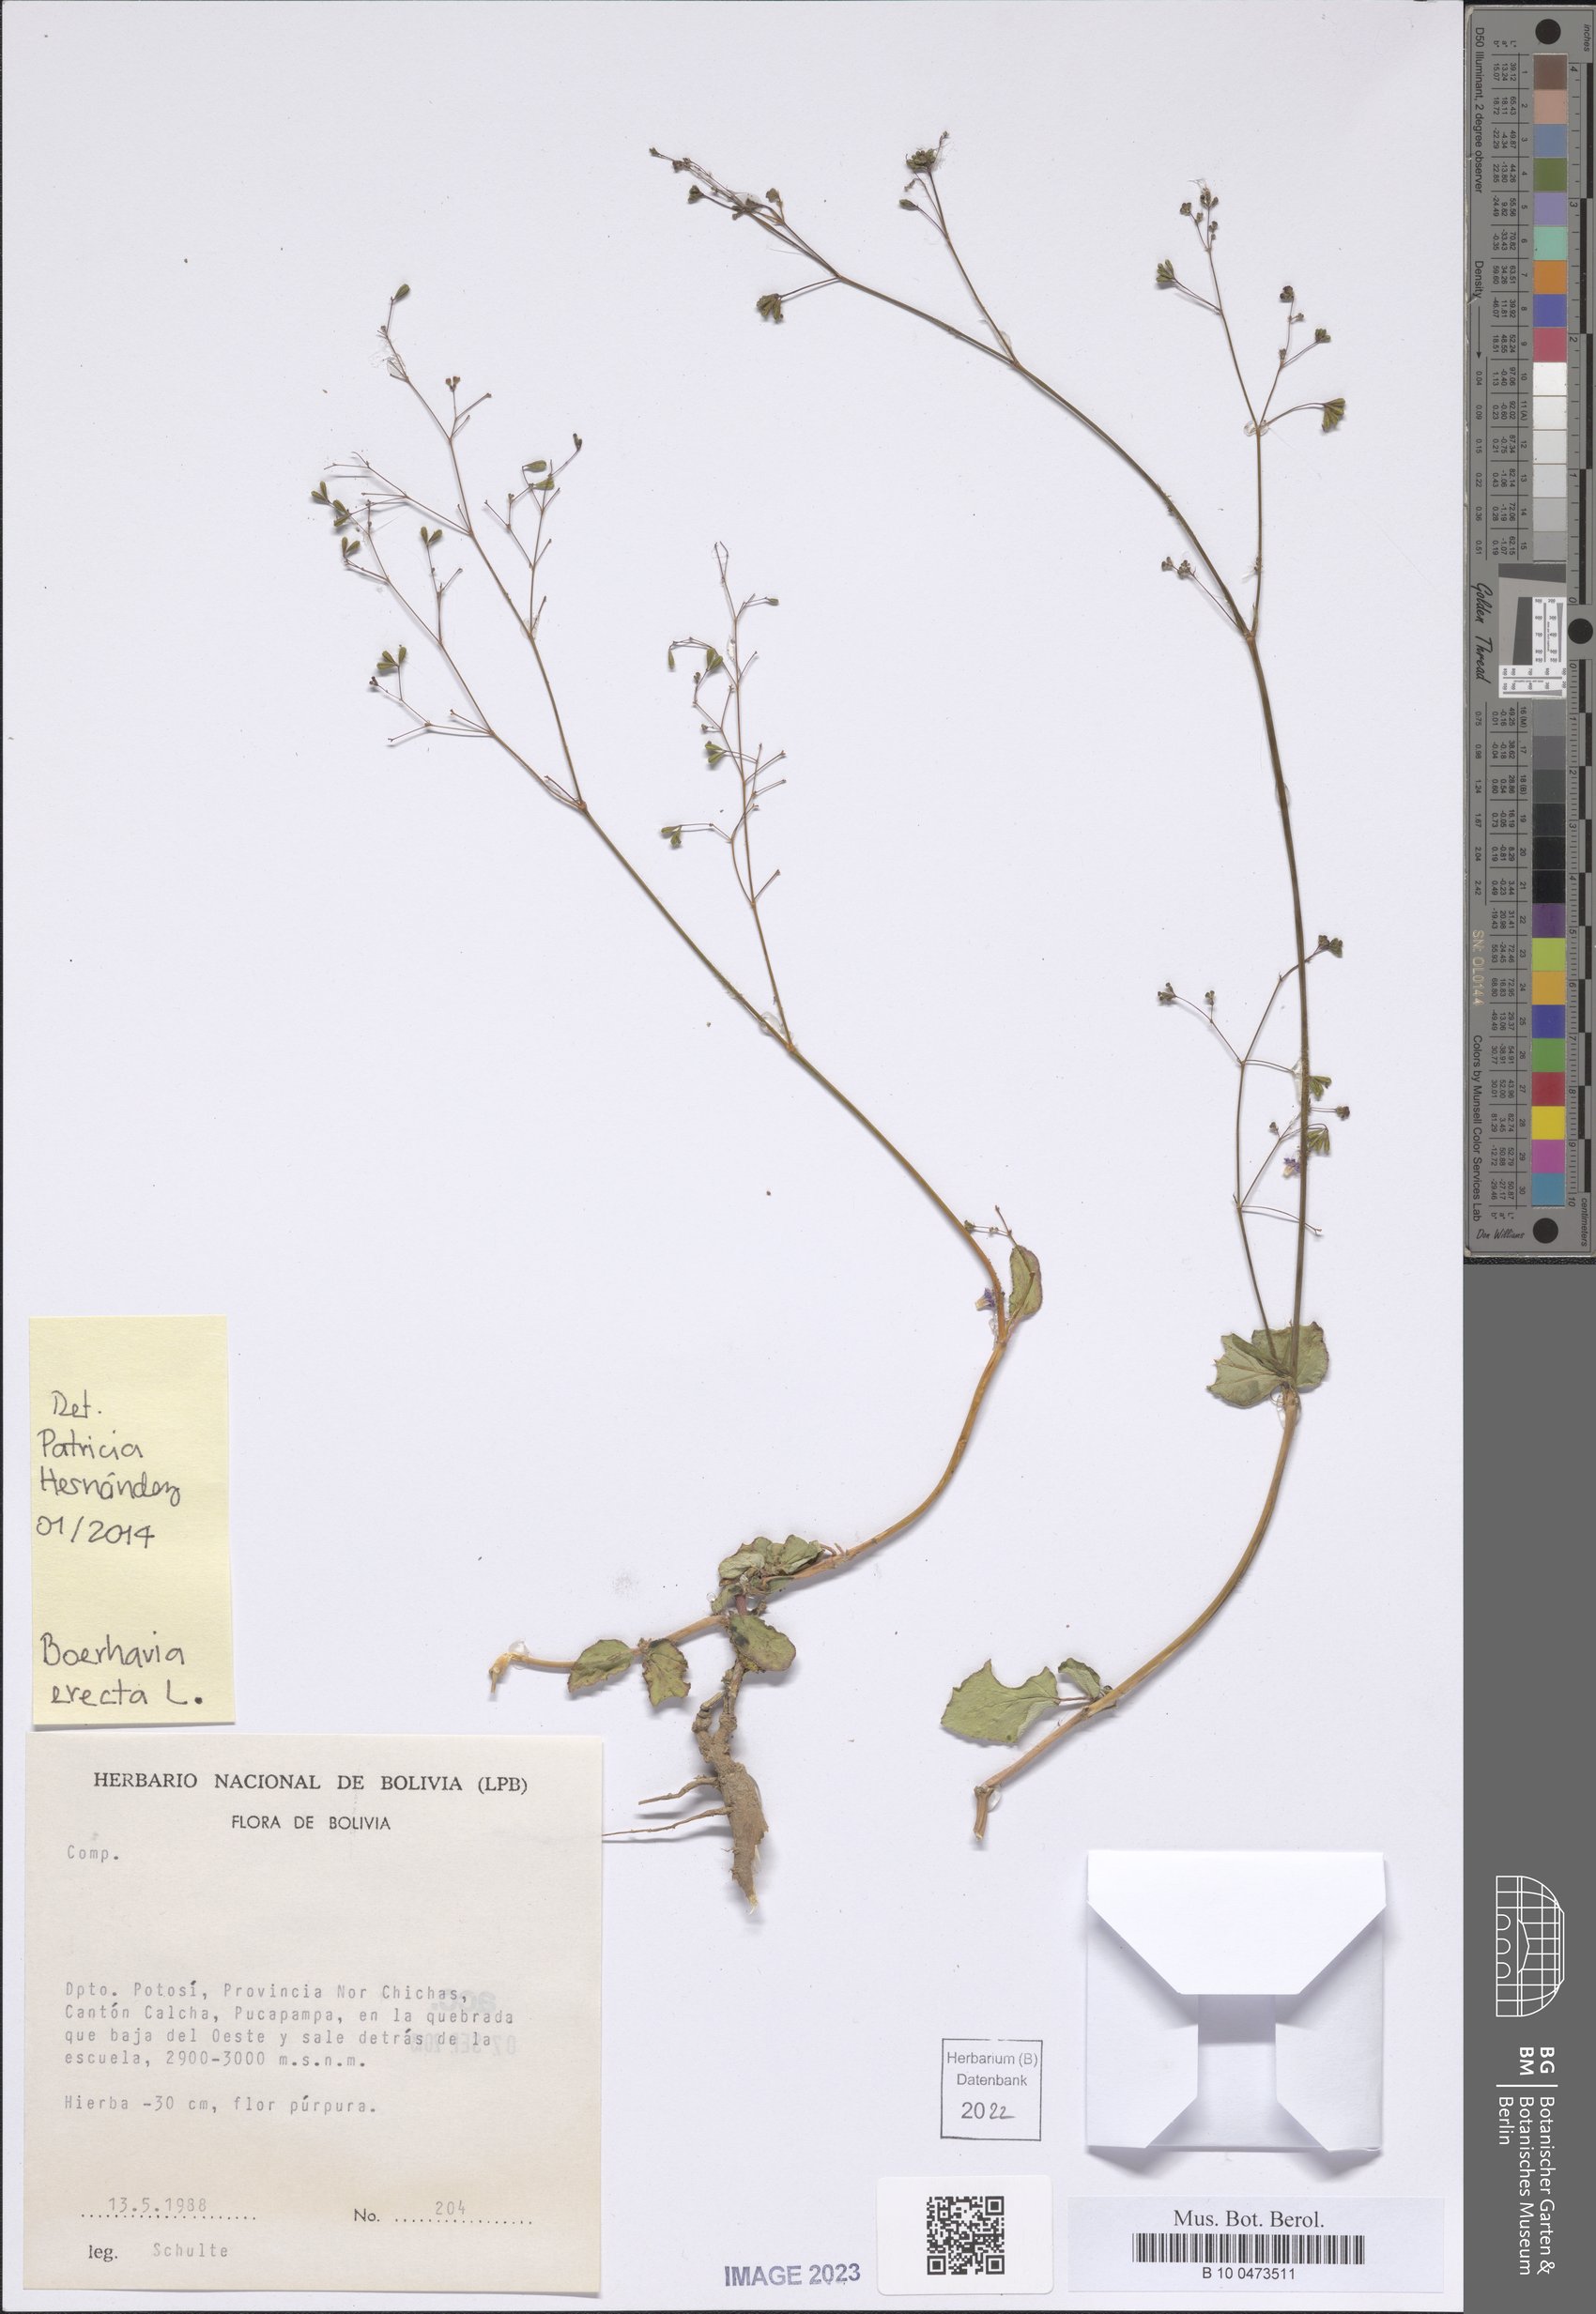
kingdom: Plantae
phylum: Tracheophyta
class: Magnoliopsida
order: Caryophyllales
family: Nyctaginaceae
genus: Boerhavia
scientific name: Boerhavia erecta
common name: Erect spiderling
